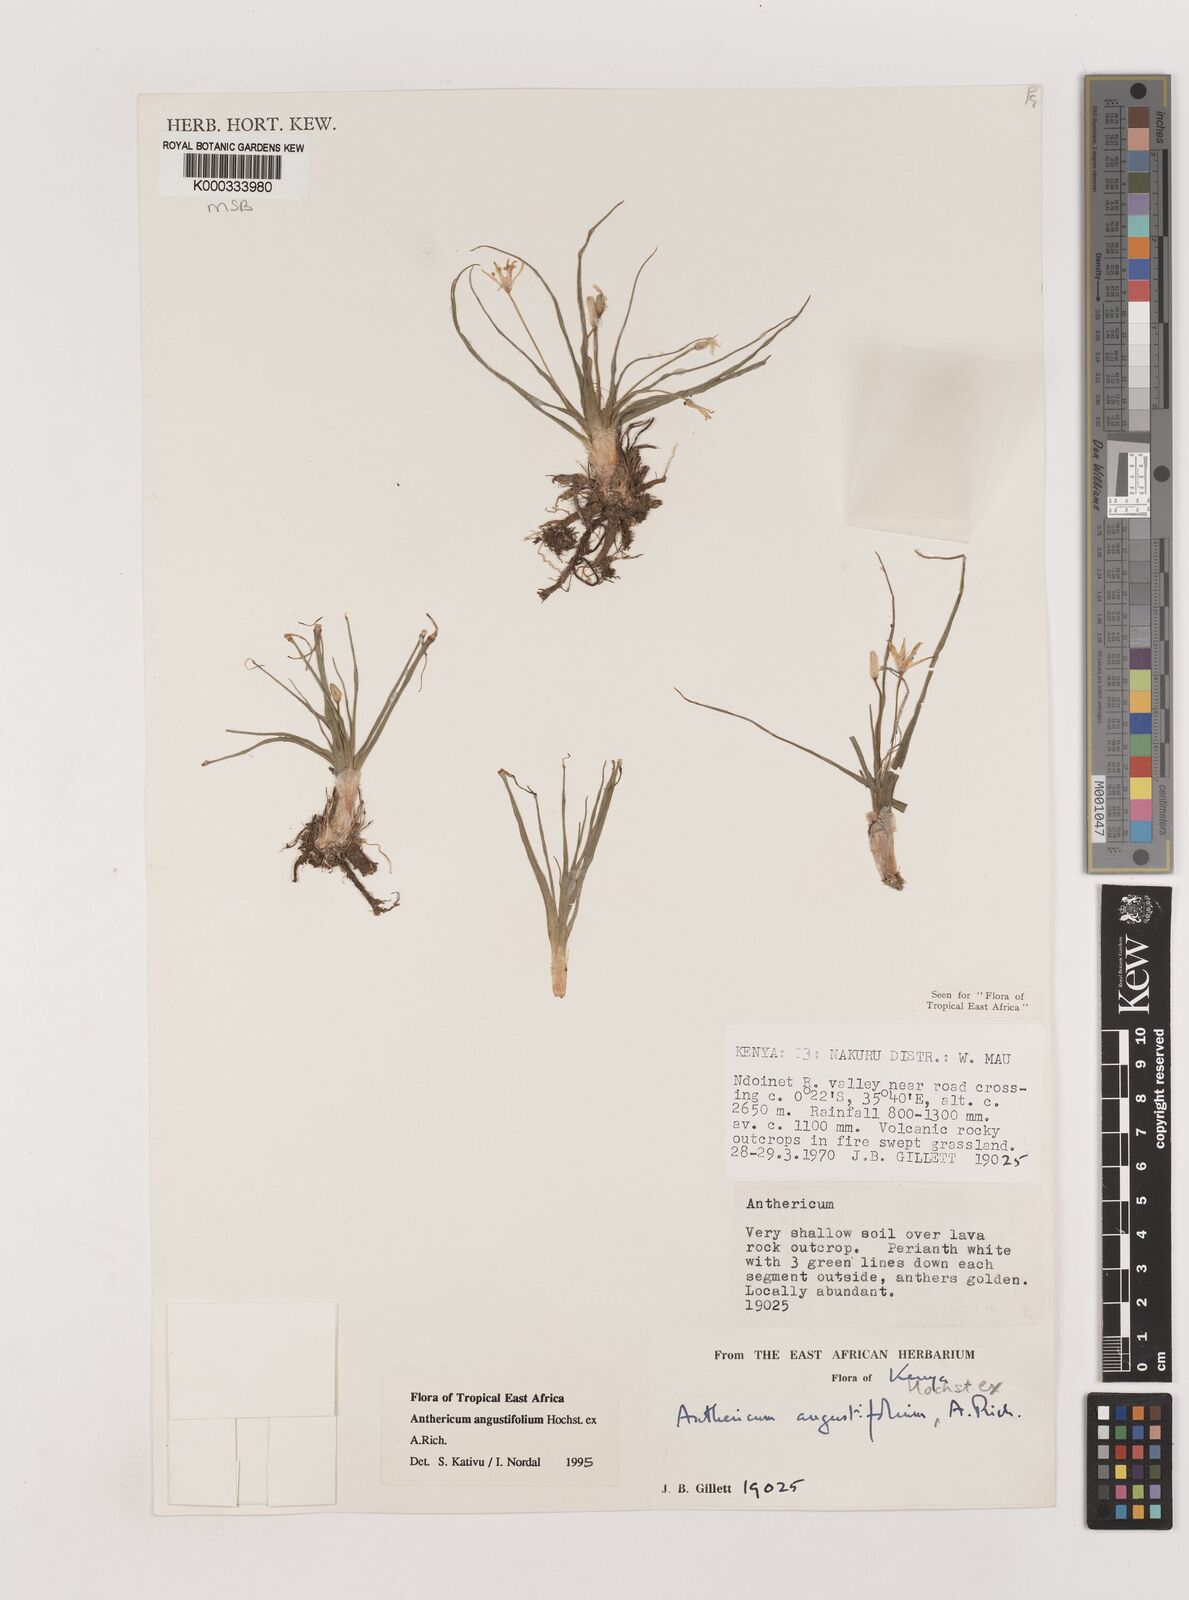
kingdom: Plantae
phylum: Tracheophyta
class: Liliopsida
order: Asparagales
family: Asparagaceae
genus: Anthericum
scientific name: Anthericum angustifolium
